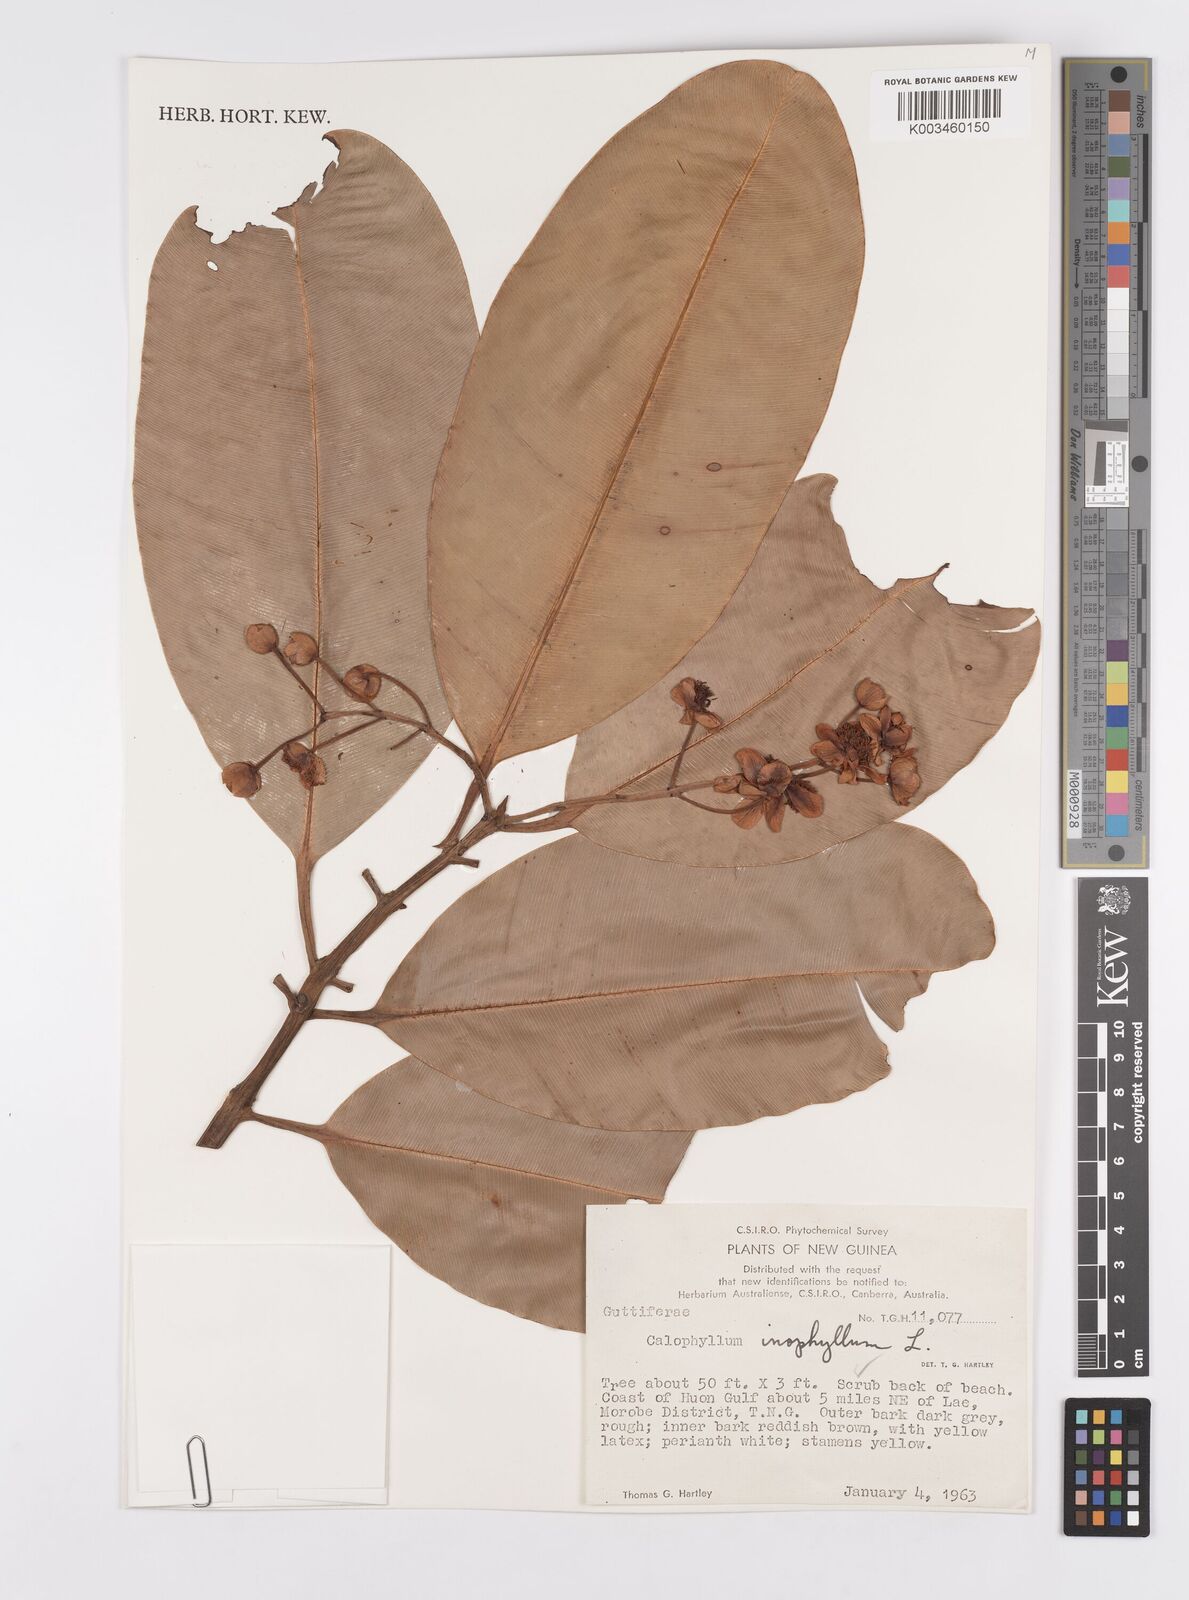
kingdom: Plantae
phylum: Tracheophyta
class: Magnoliopsida
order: Malpighiales
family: Calophyllaceae
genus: Calophyllum
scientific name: Calophyllum inophyllum
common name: Alexandrian laurel
